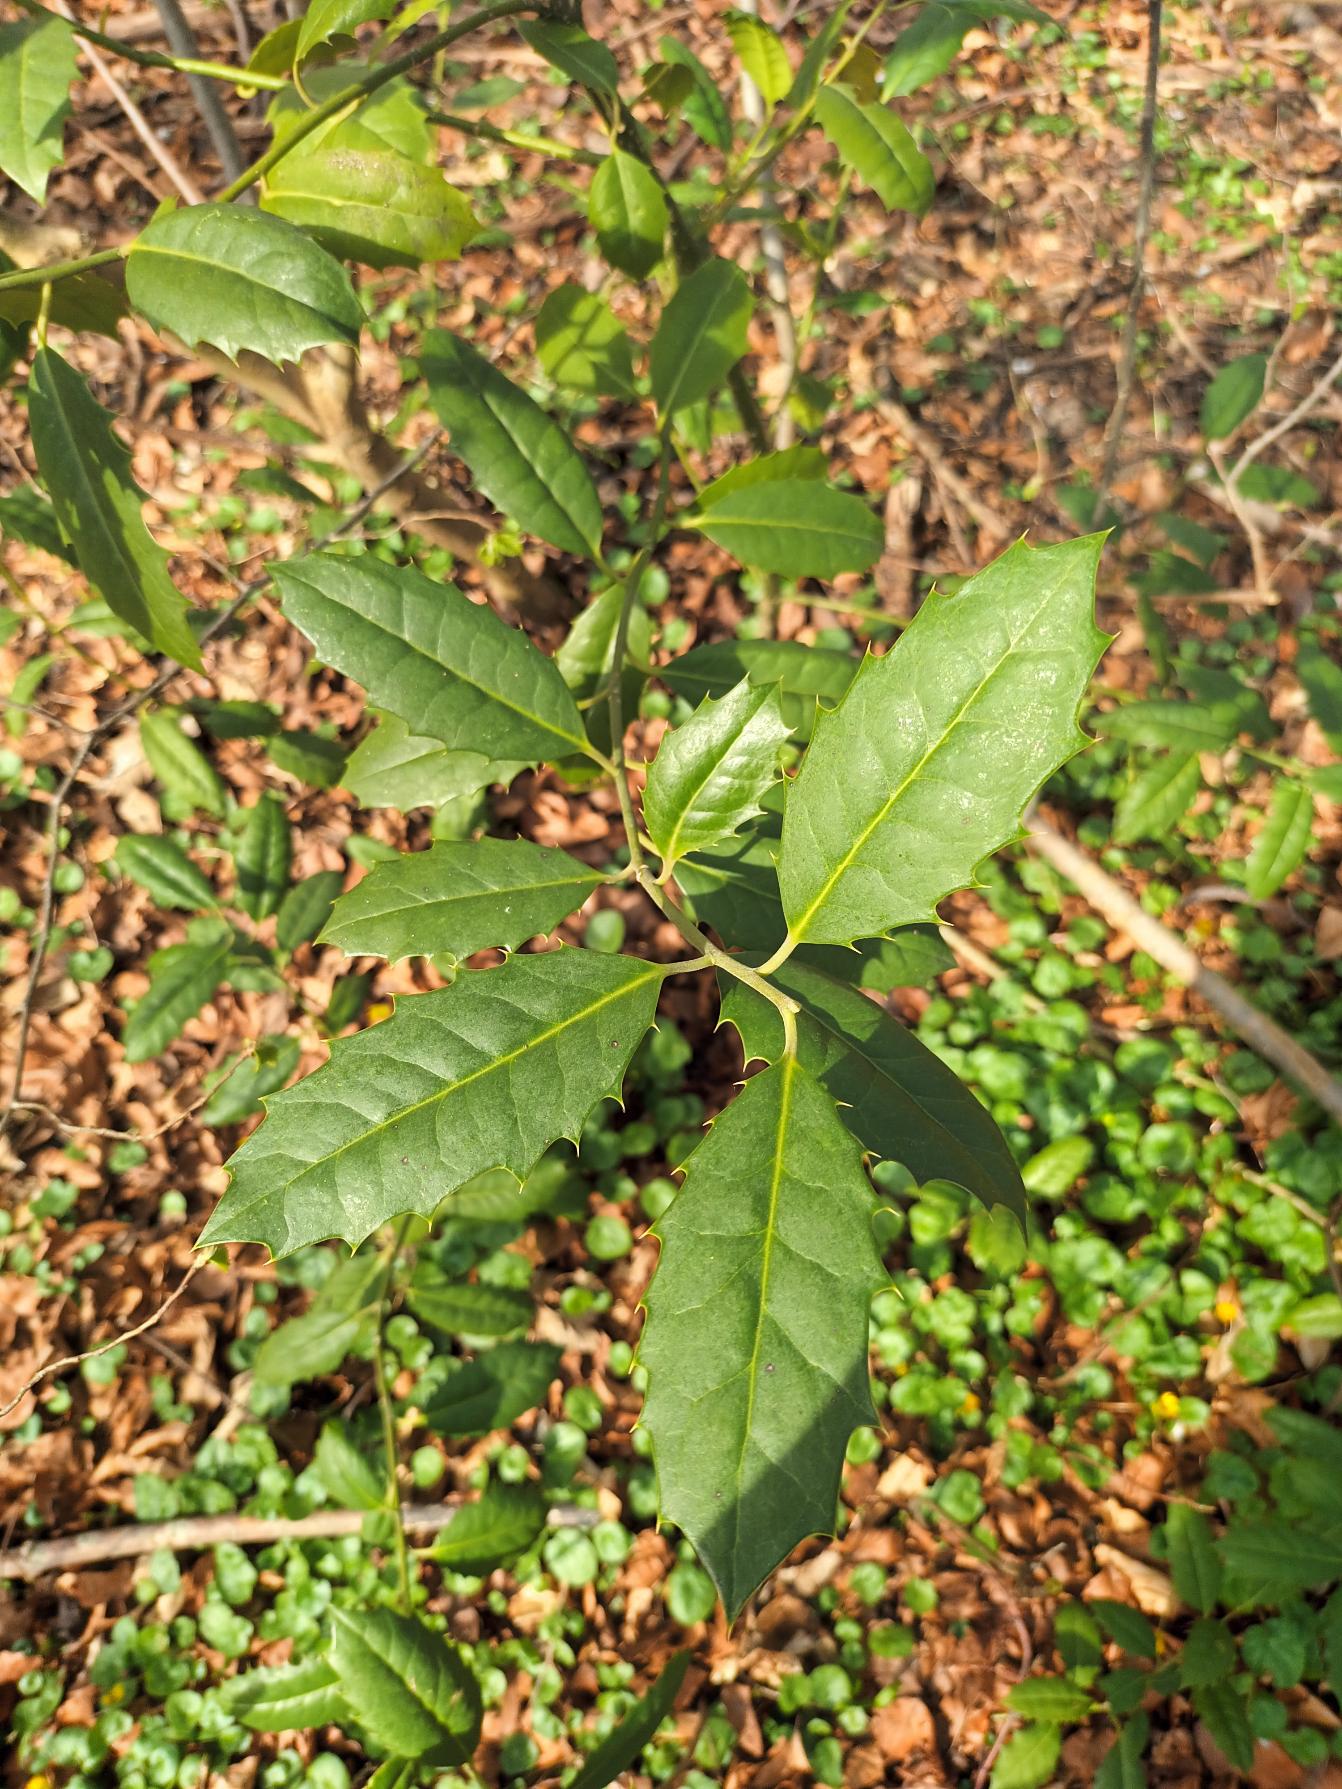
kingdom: Plantae
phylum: Tracheophyta
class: Magnoliopsida
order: Aquifoliales
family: Aquifoliaceae
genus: Ilex
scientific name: Ilex altaclerensis
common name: Storbladet kristtorn
